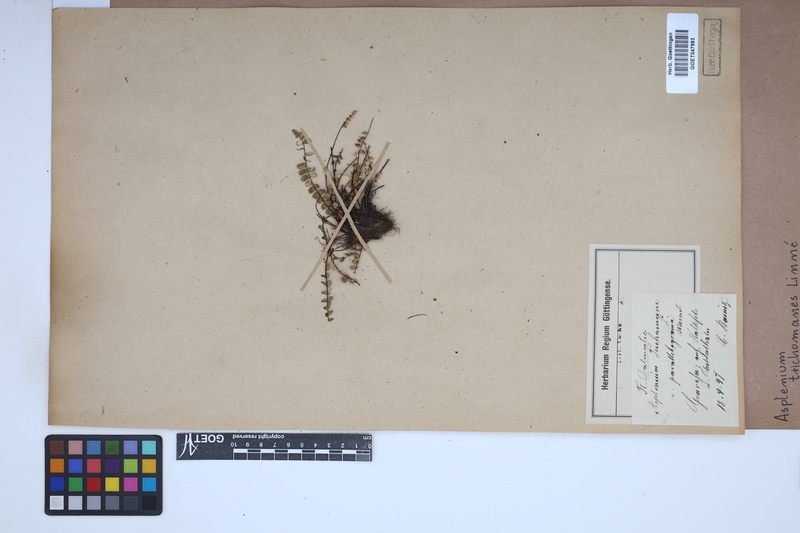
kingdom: Plantae
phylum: Tracheophyta
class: Polypodiopsida
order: Polypodiales
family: Aspleniaceae
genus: Asplenium
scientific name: Asplenium trichomanes
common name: Maidenhair spleenwort
